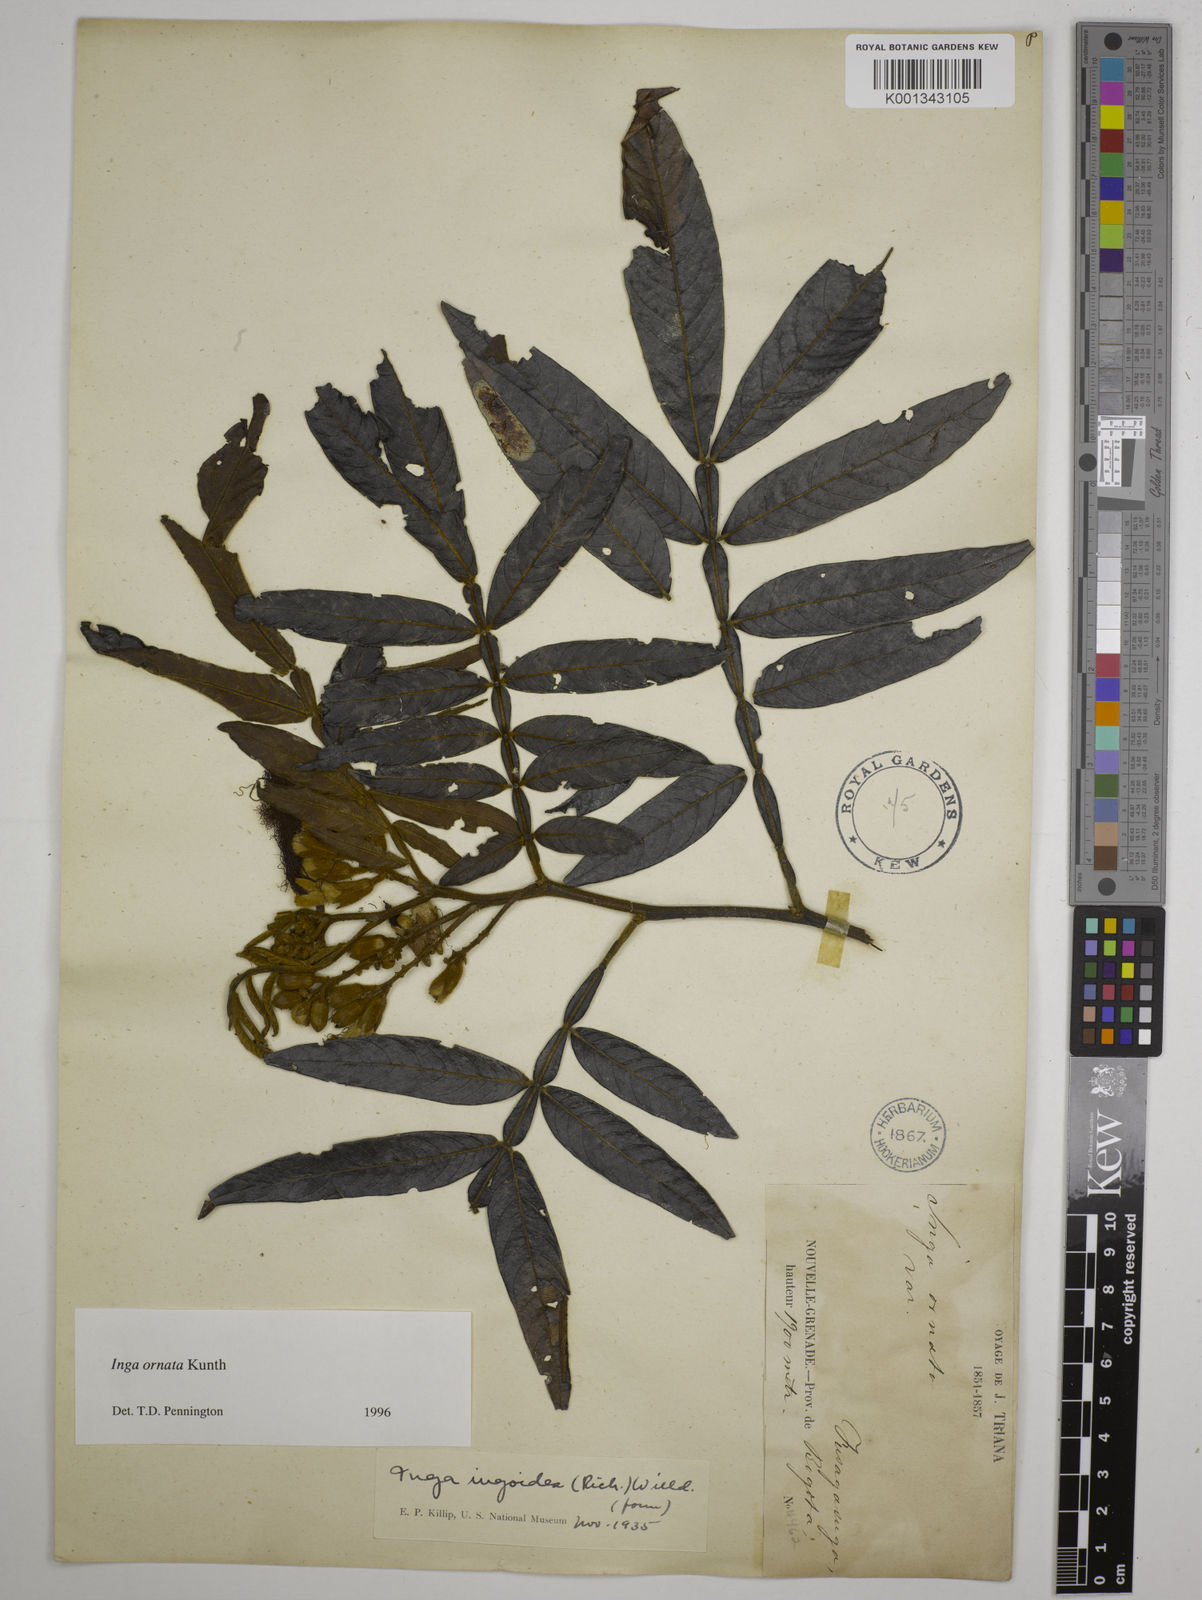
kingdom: Plantae
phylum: Tracheophyta
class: Magnoliopsida
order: Fabales
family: Fabaceae
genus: Inga
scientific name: Inga ornata
